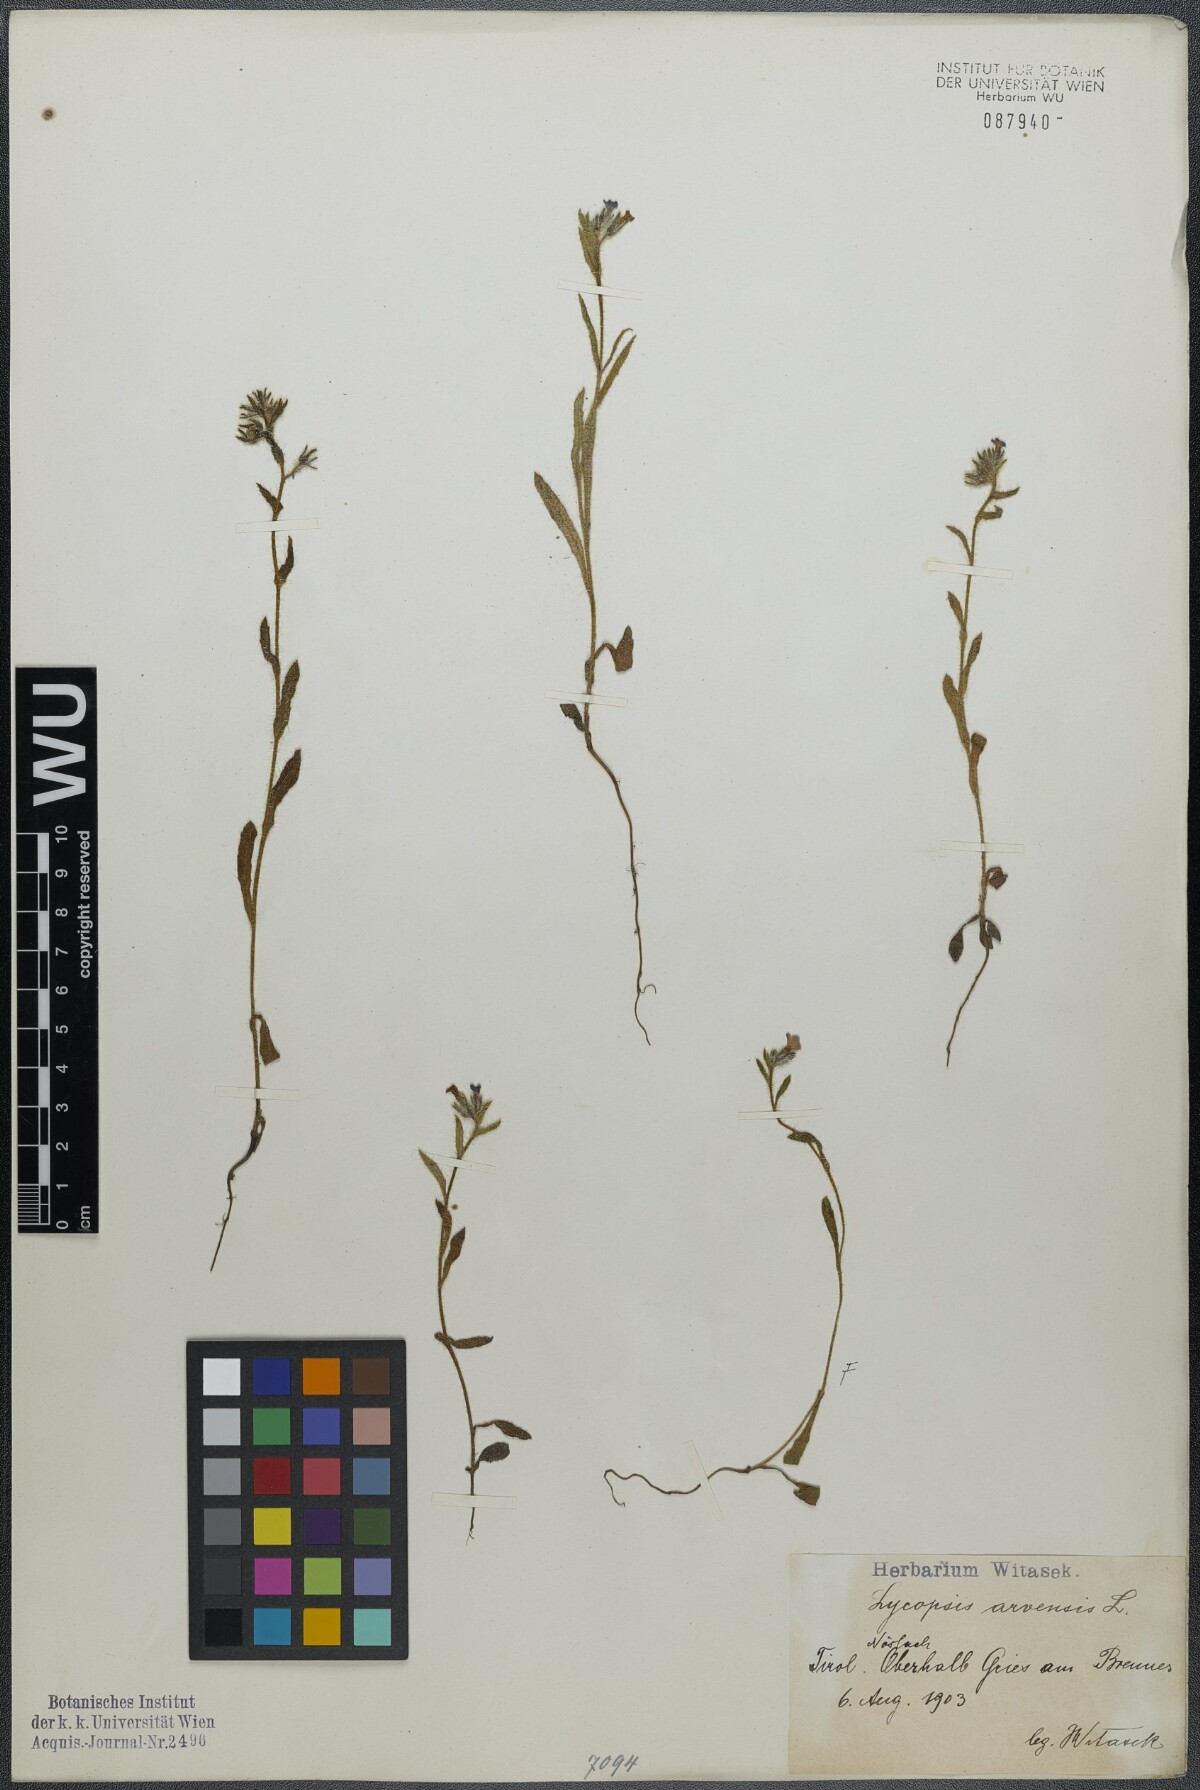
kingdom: Plantae
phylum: Tracheophyta
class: Magnoliopsida
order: Boraginales
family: Boraginaceae
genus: Lycopsis
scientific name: Lycopsis arvensis
